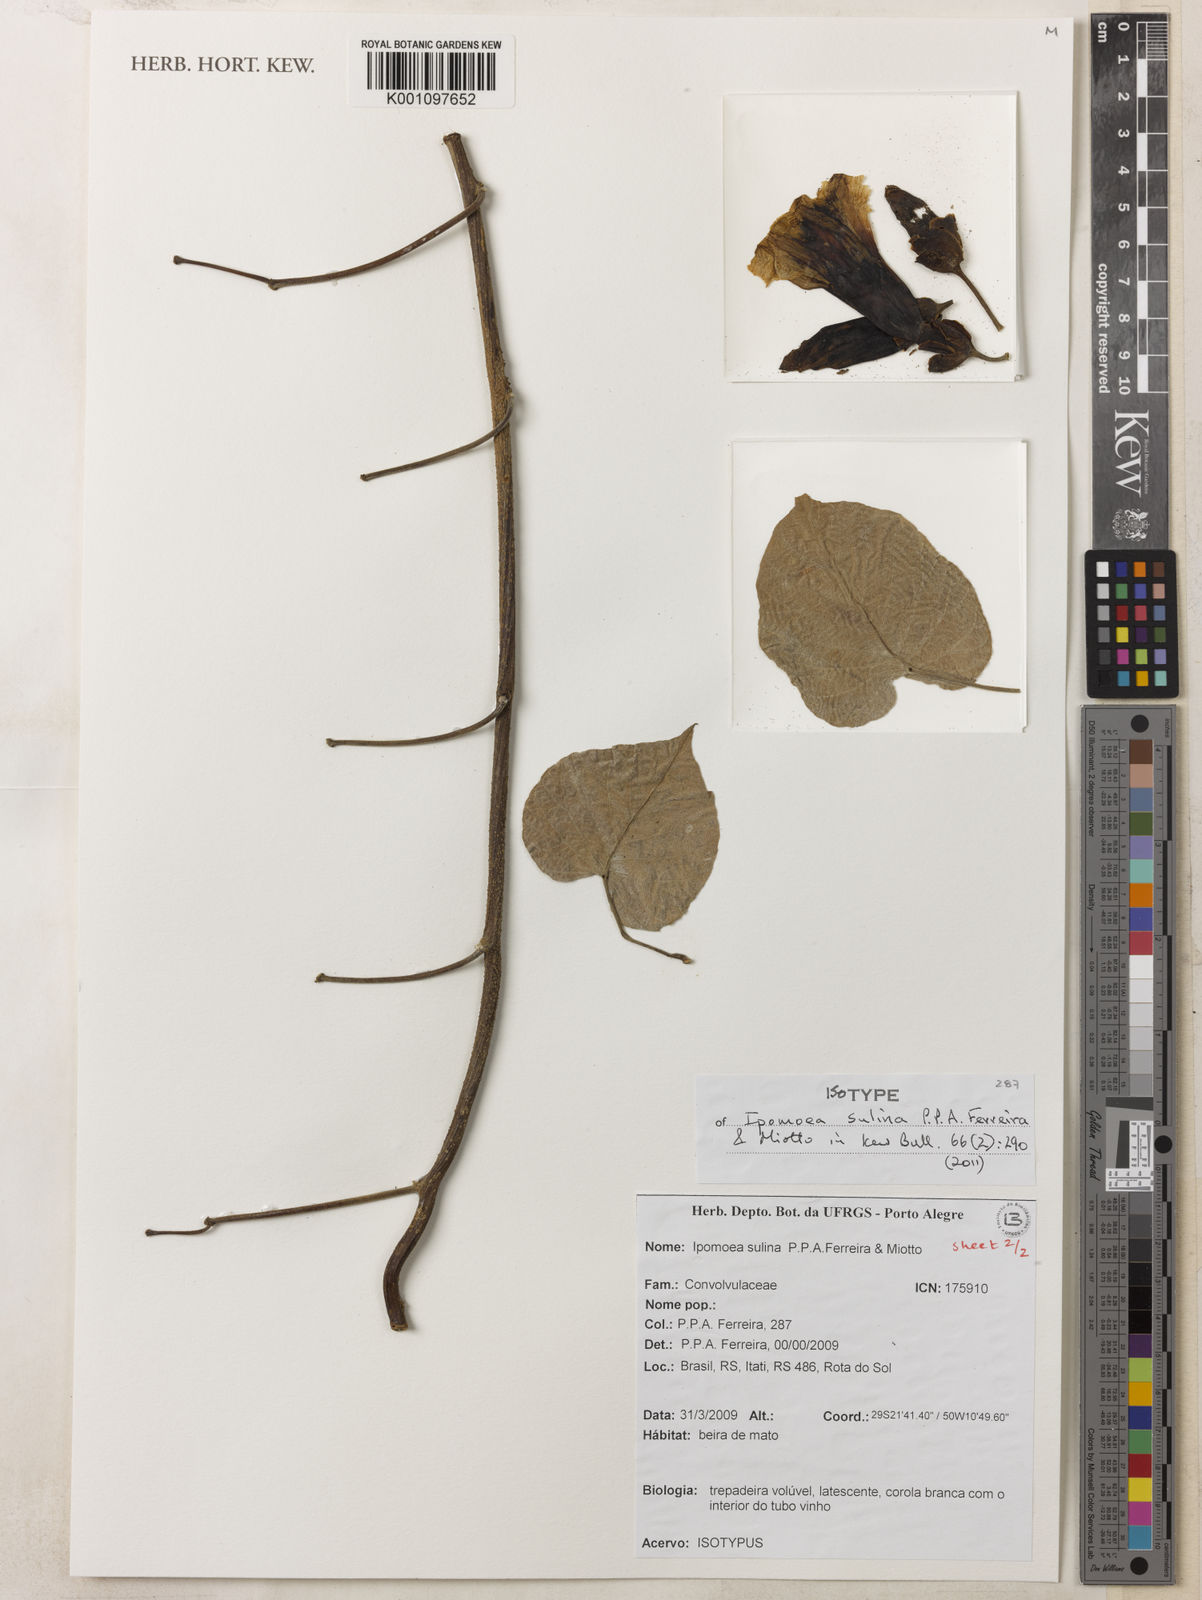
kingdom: Plantae
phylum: Tracheophyta
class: Magnoliopsida
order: Solanales
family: Convolvulaceae
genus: Ipomoea
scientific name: Ipomoea sulina
